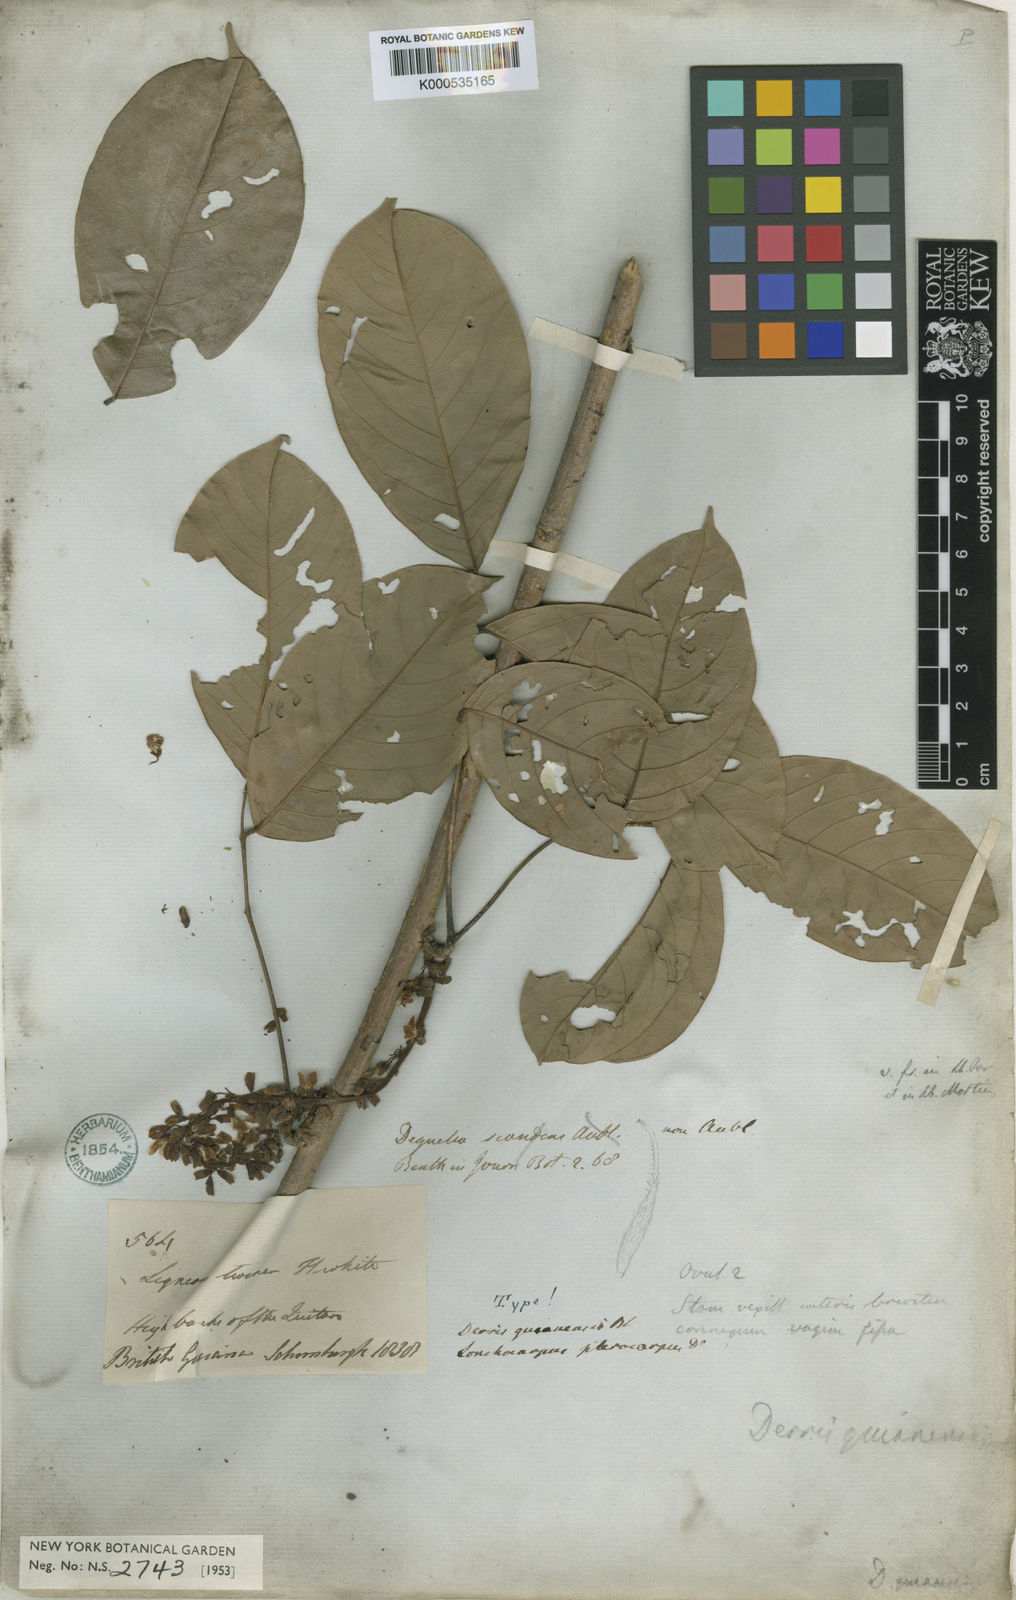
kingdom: Plantae
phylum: Tracheophyta
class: Magnoliopsida
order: Fabales
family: Fabaceae
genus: Deguelia
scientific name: Deguelia scandens
